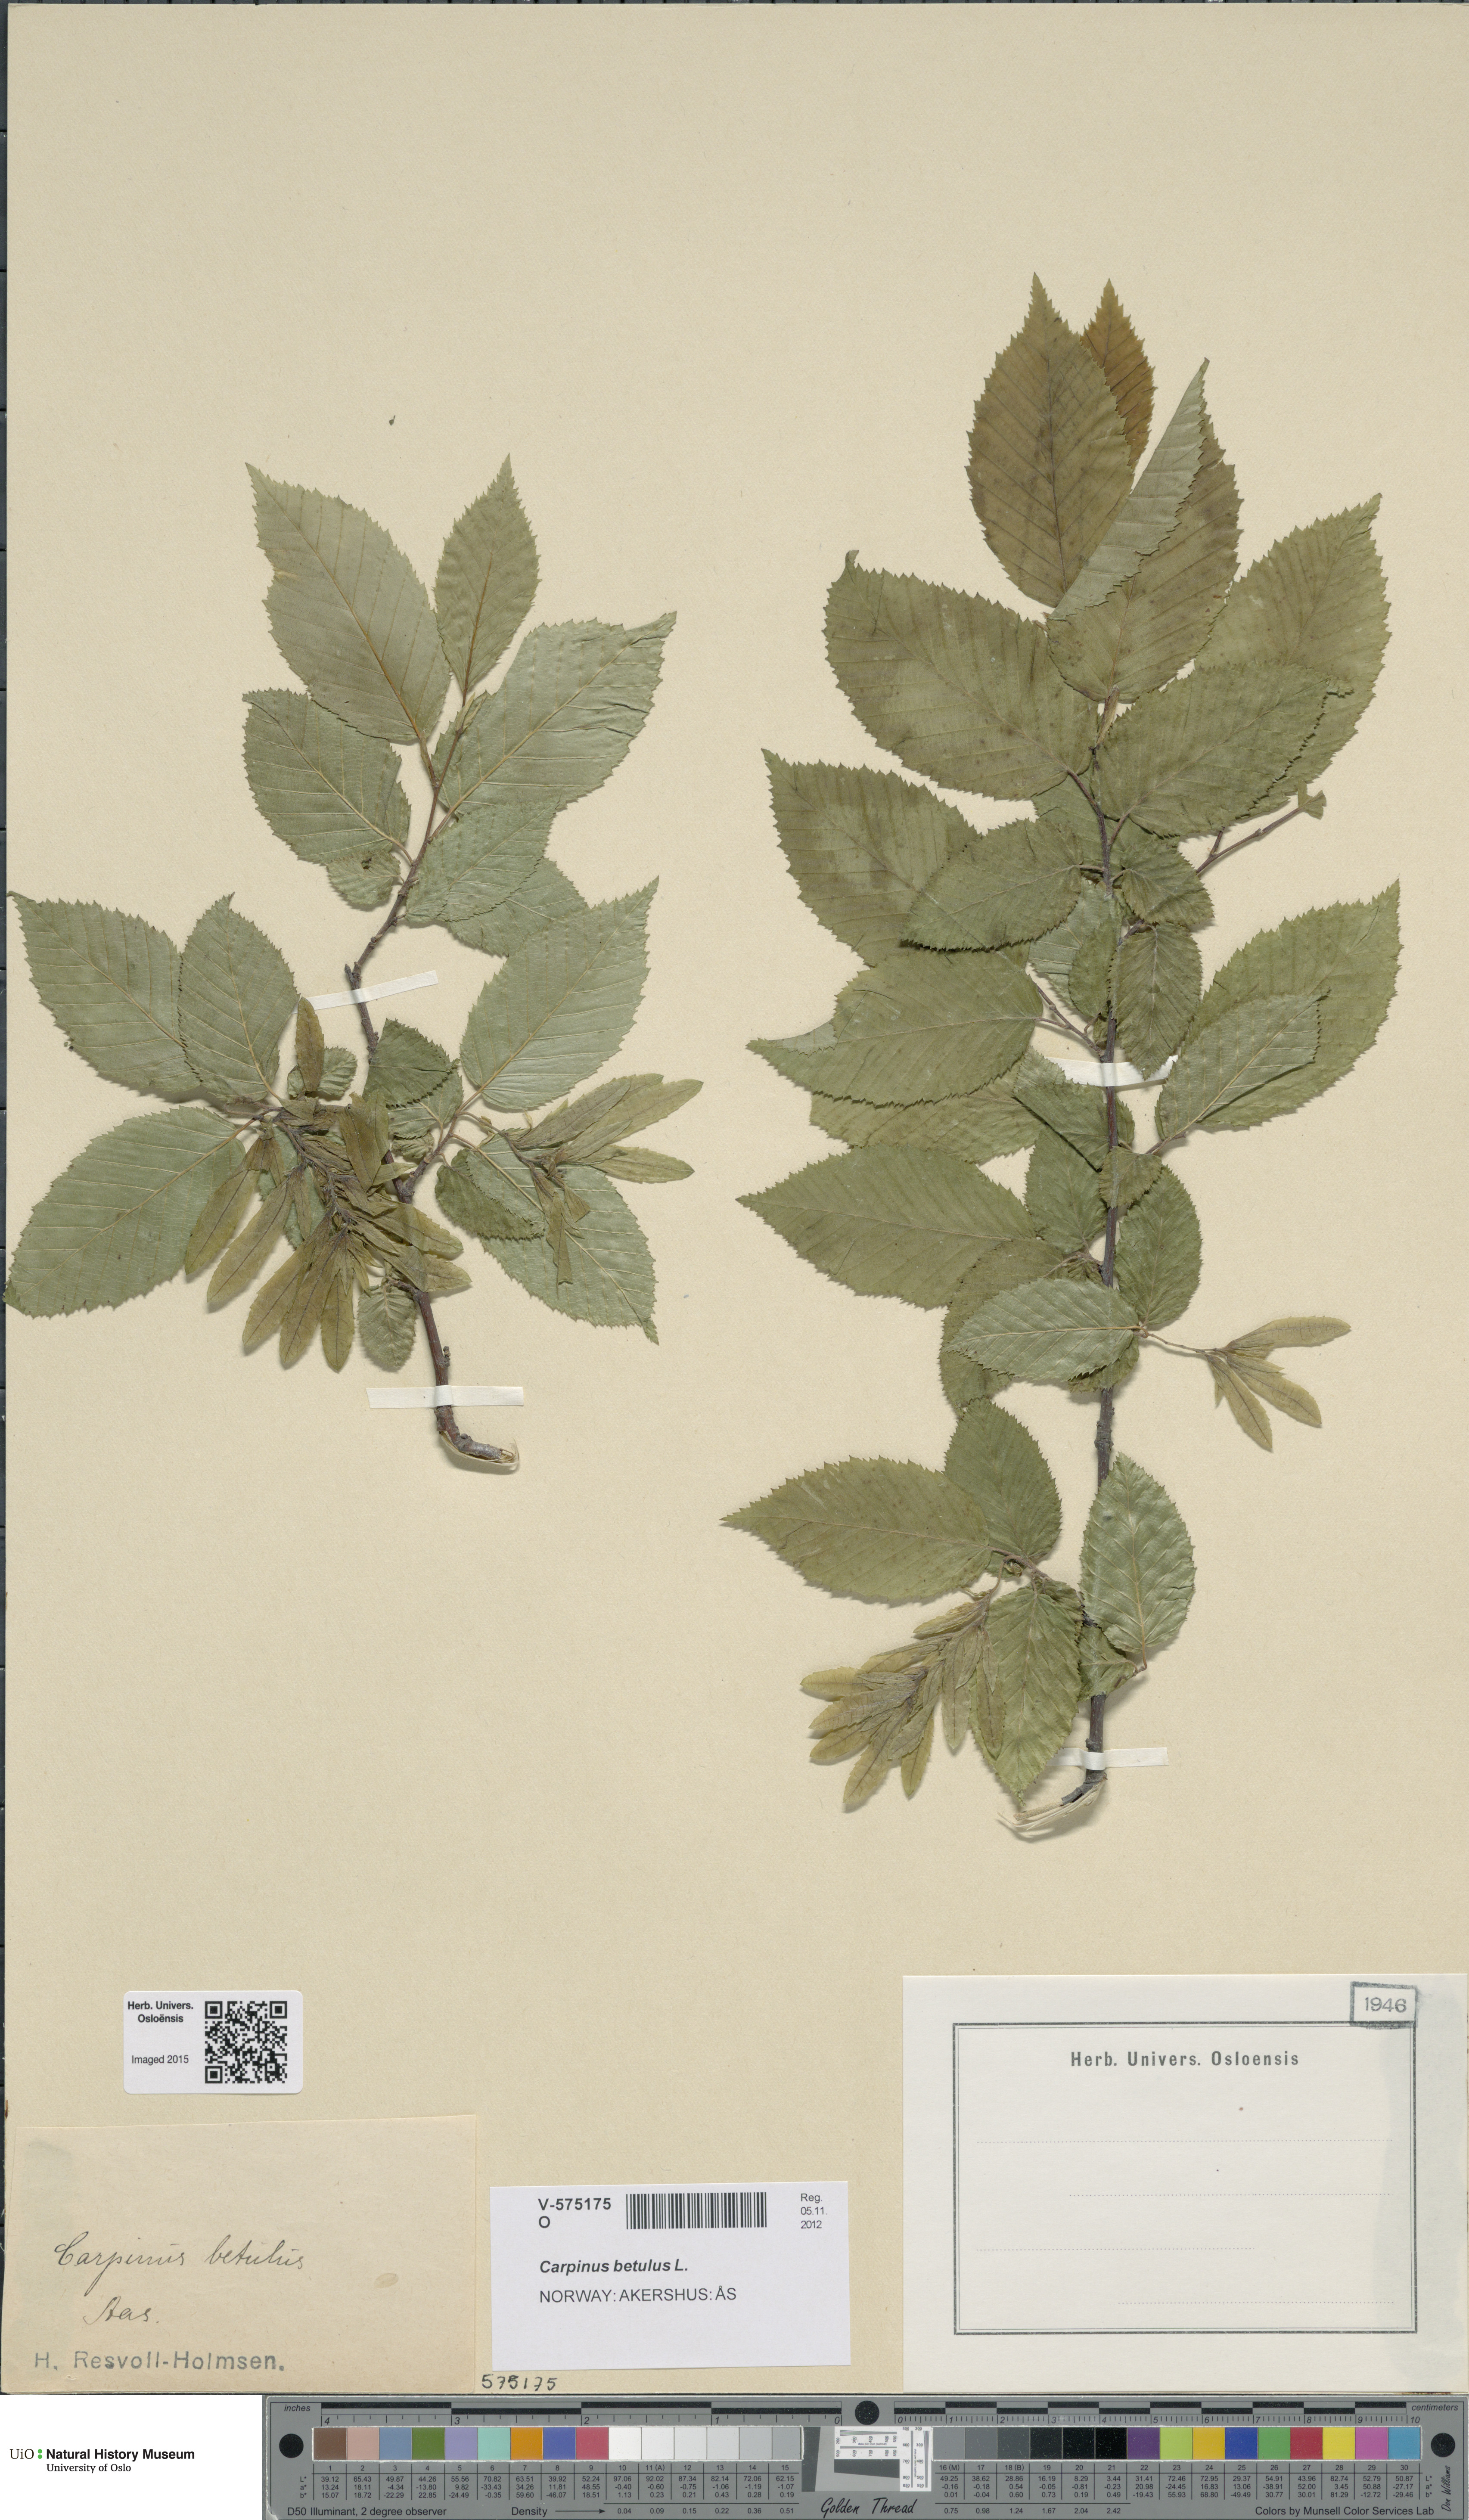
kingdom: Plantae
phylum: Tracheophyta
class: Magnoliopsida
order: Fagales
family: Betulaceae
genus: Carpinus
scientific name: Carpinus betulus
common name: Hornbeam
